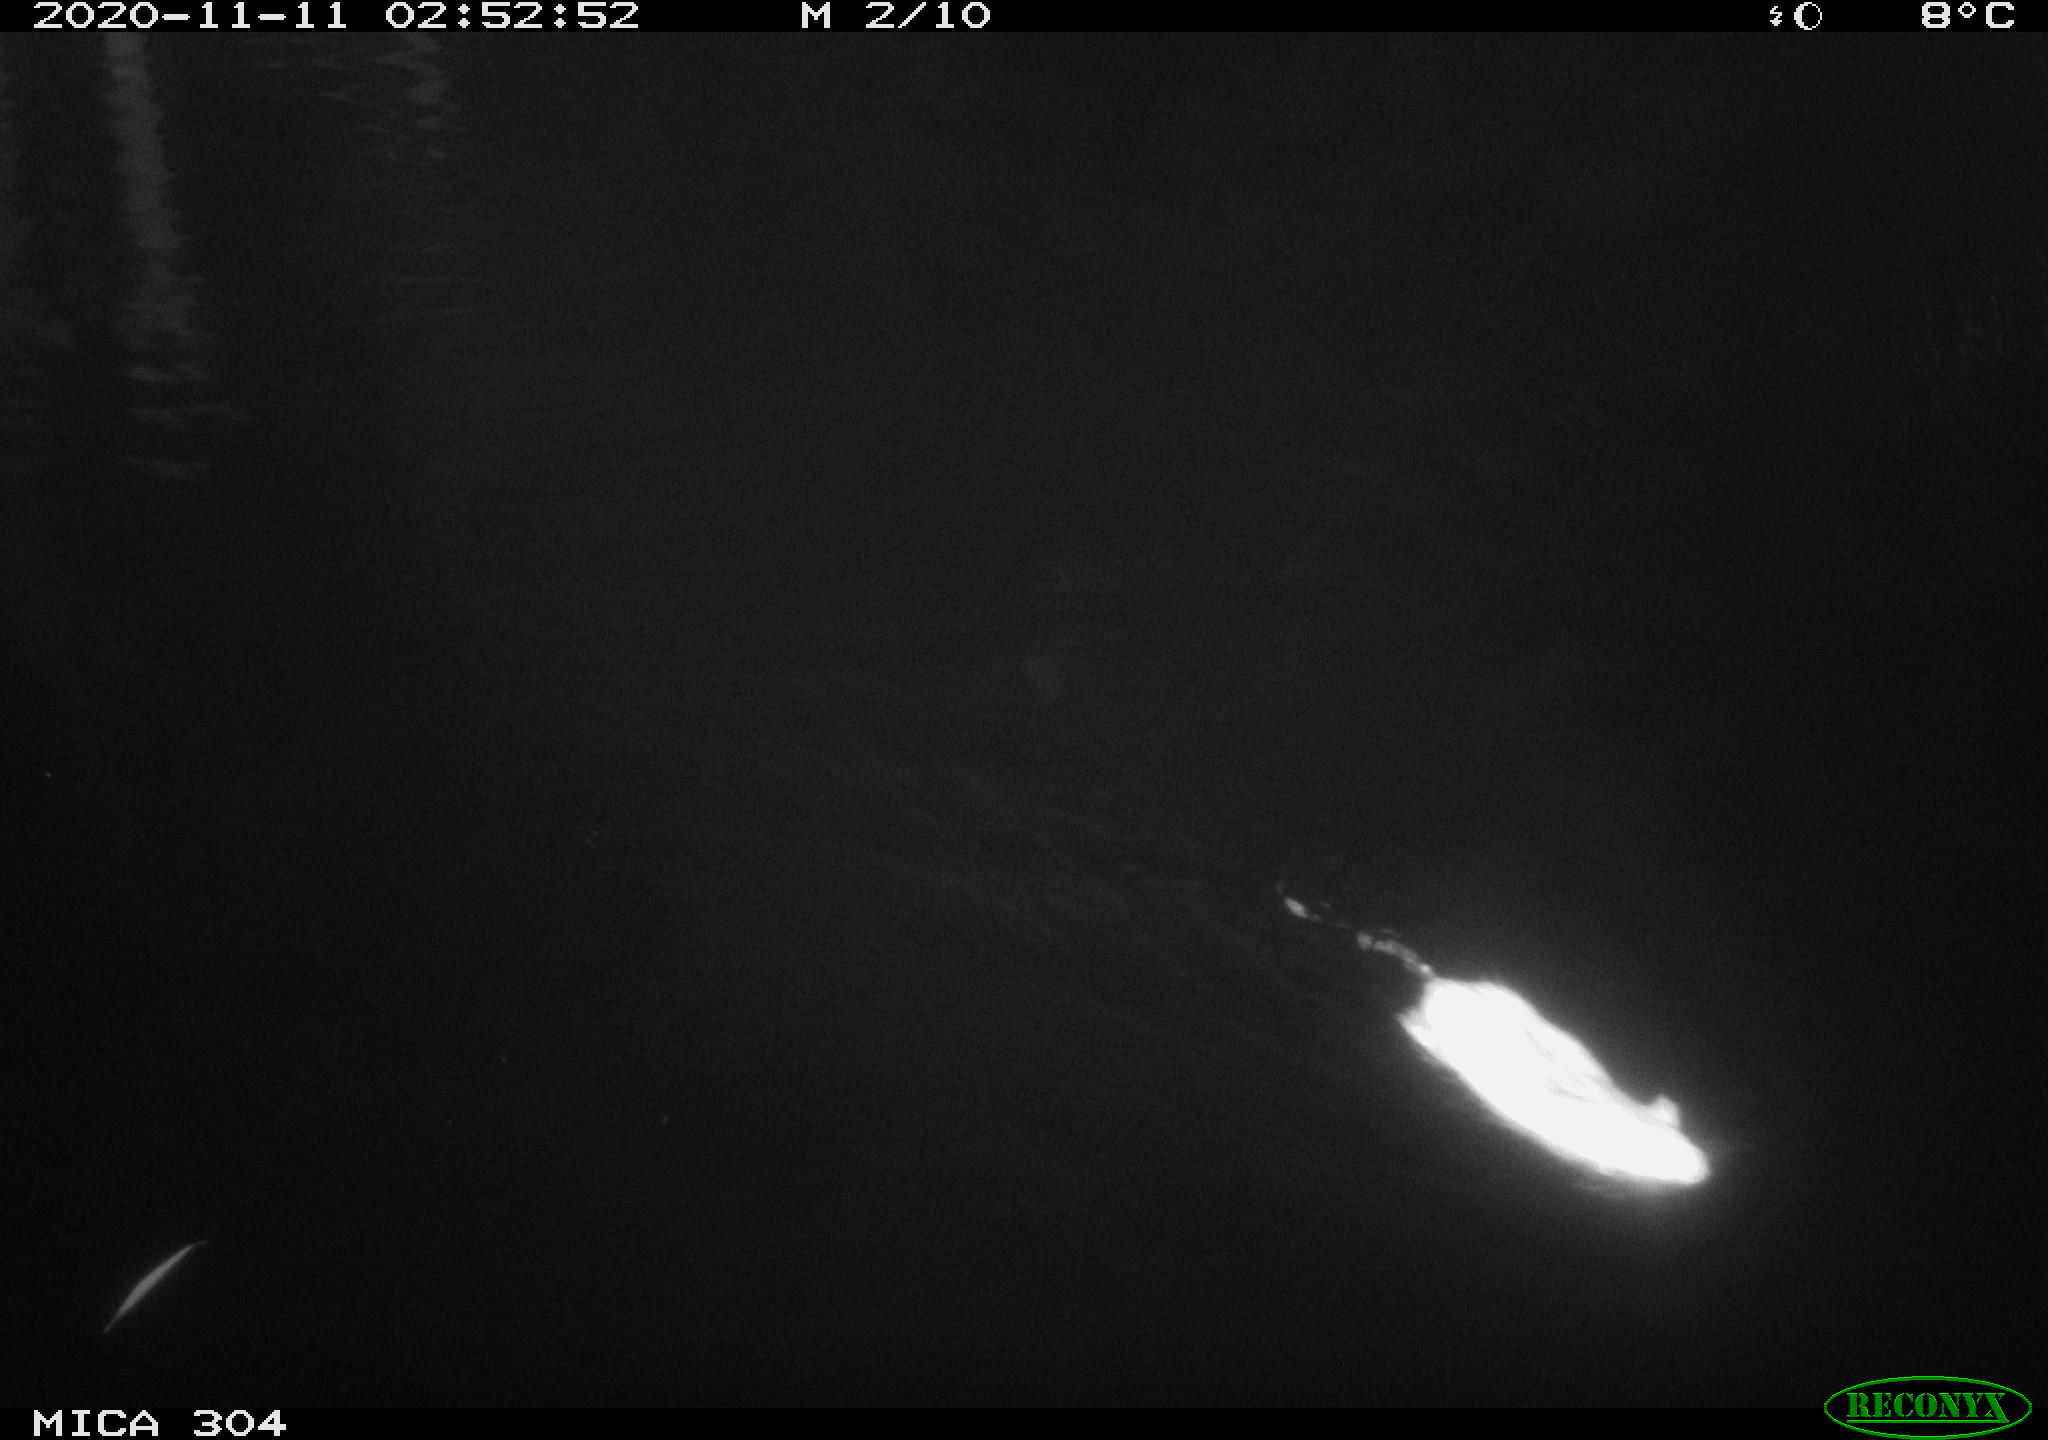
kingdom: Animalia
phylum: Chordata
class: Mammalia
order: Rodentia
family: Muridae
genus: Rattus
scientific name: Rattus norvegicus
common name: Brown rat
